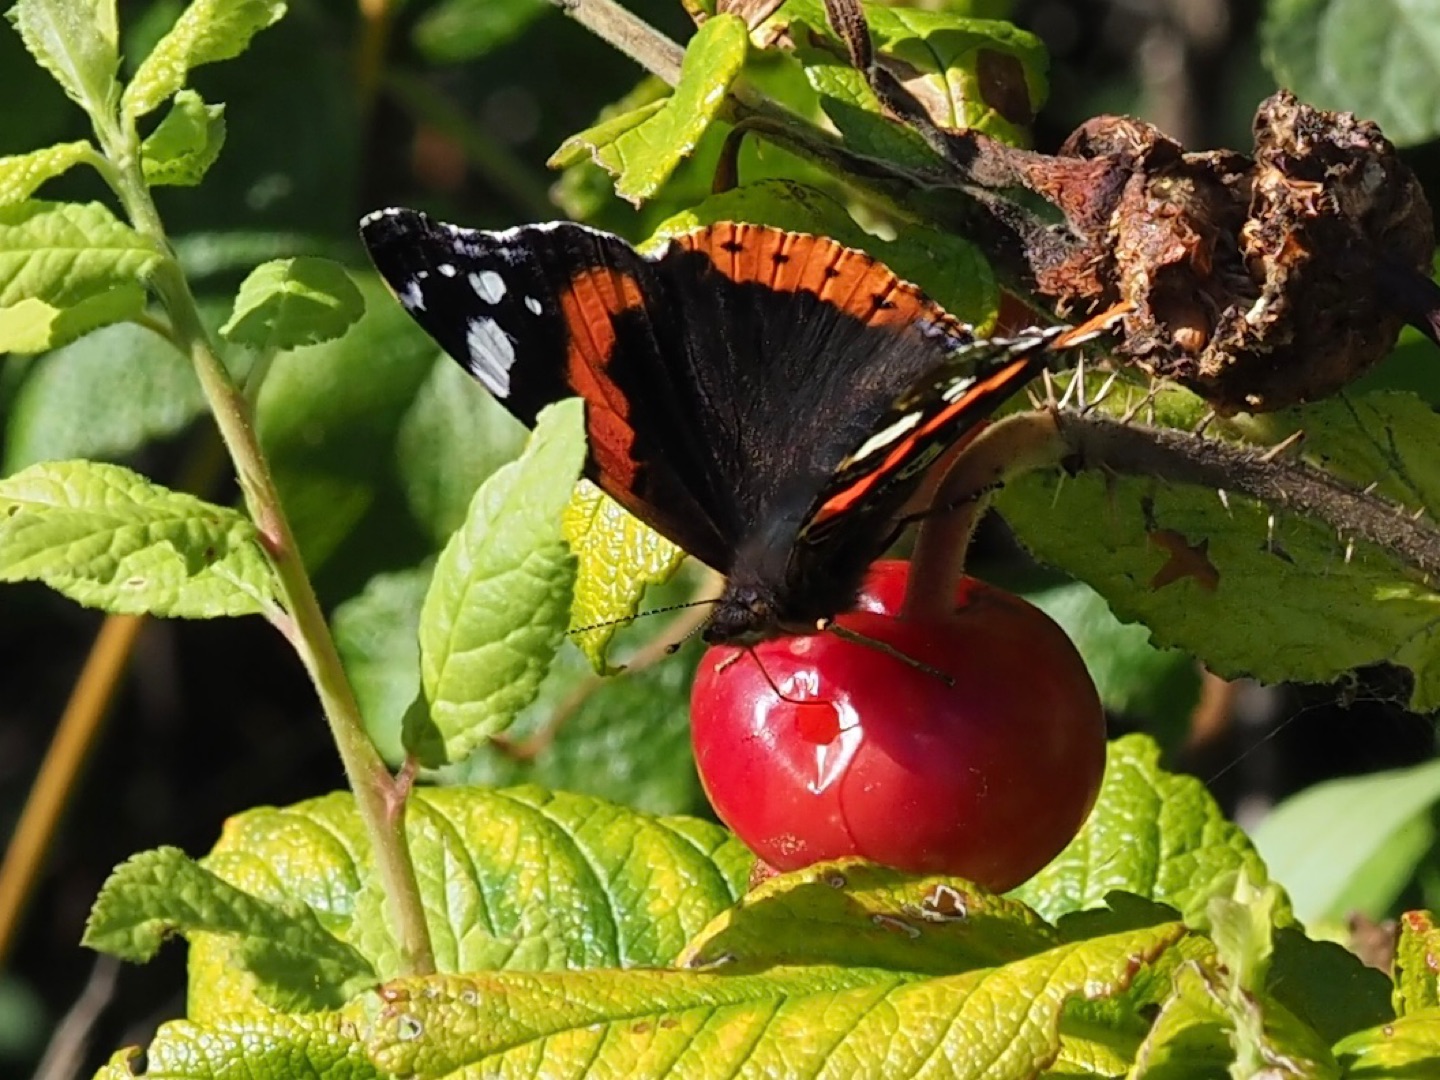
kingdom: Animalia
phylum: Arthropoda
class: Insecta
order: Lepidoptera
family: Nymphalidae
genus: Vanessa
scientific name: Vanessa atalanta
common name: Admiral
